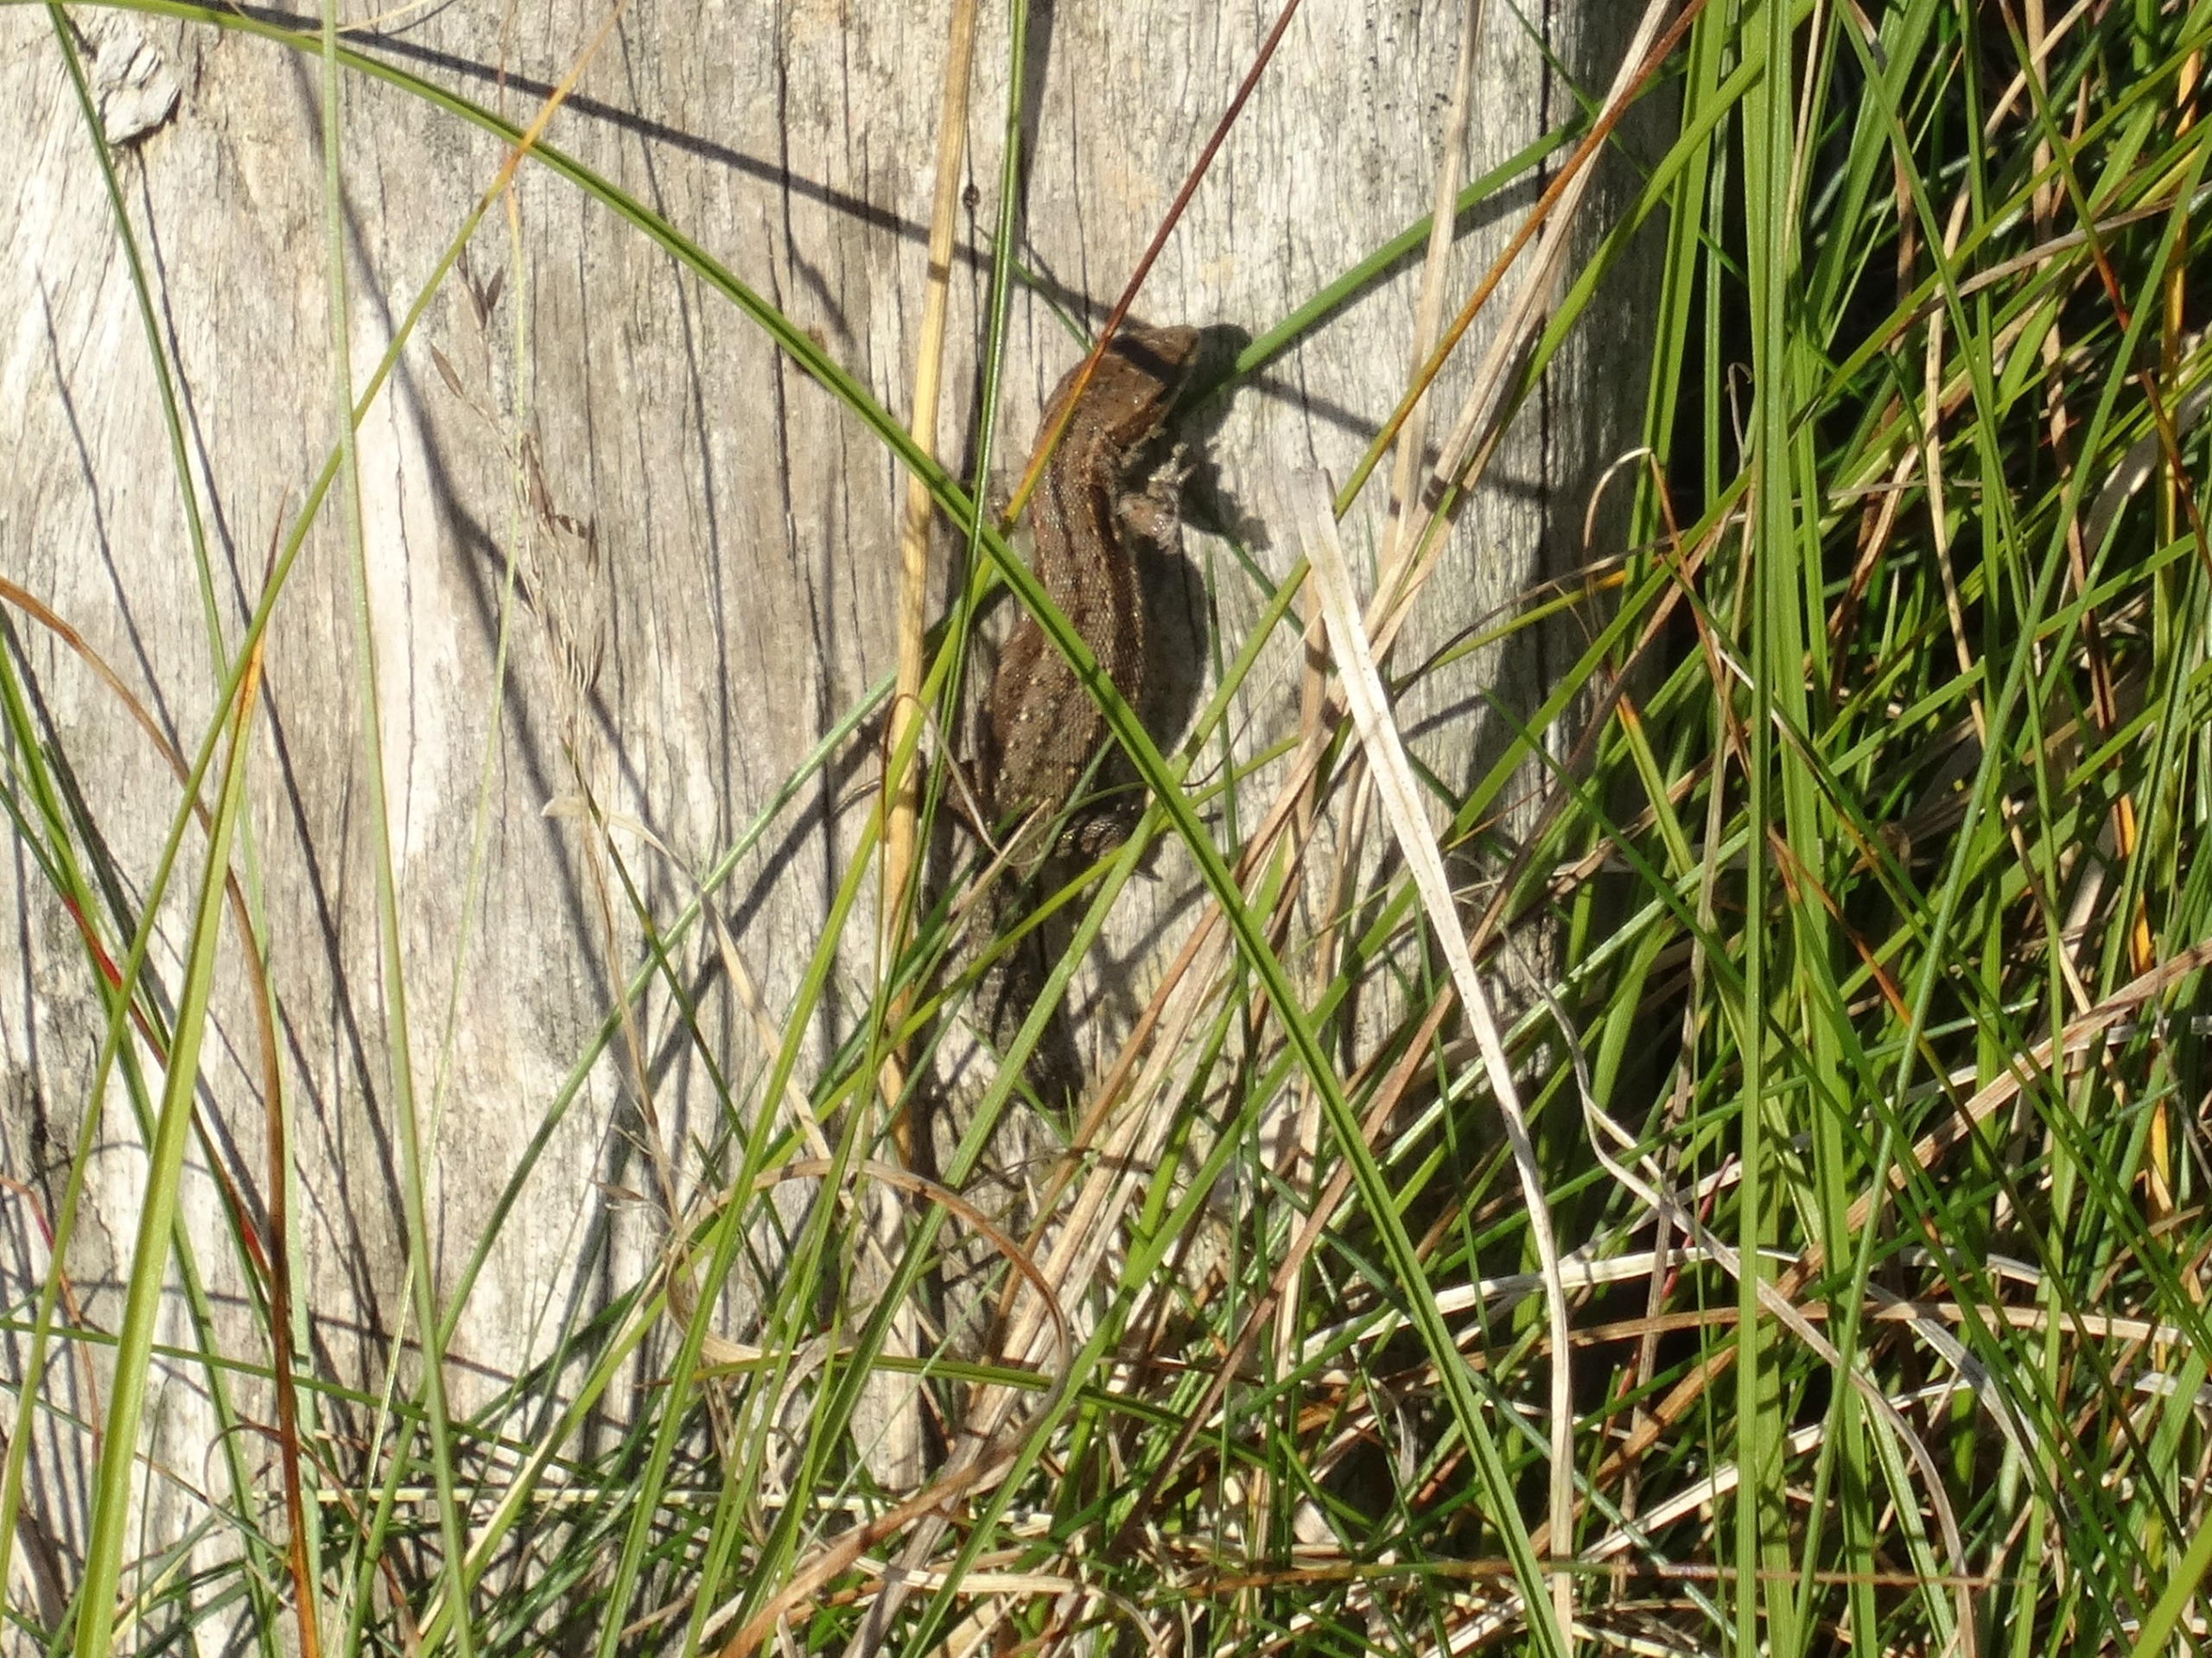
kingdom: Animalia
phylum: Chordata
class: Squamata
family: Lacertidae
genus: Zootoca
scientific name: Zootoca vivipara
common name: Skovfirben
